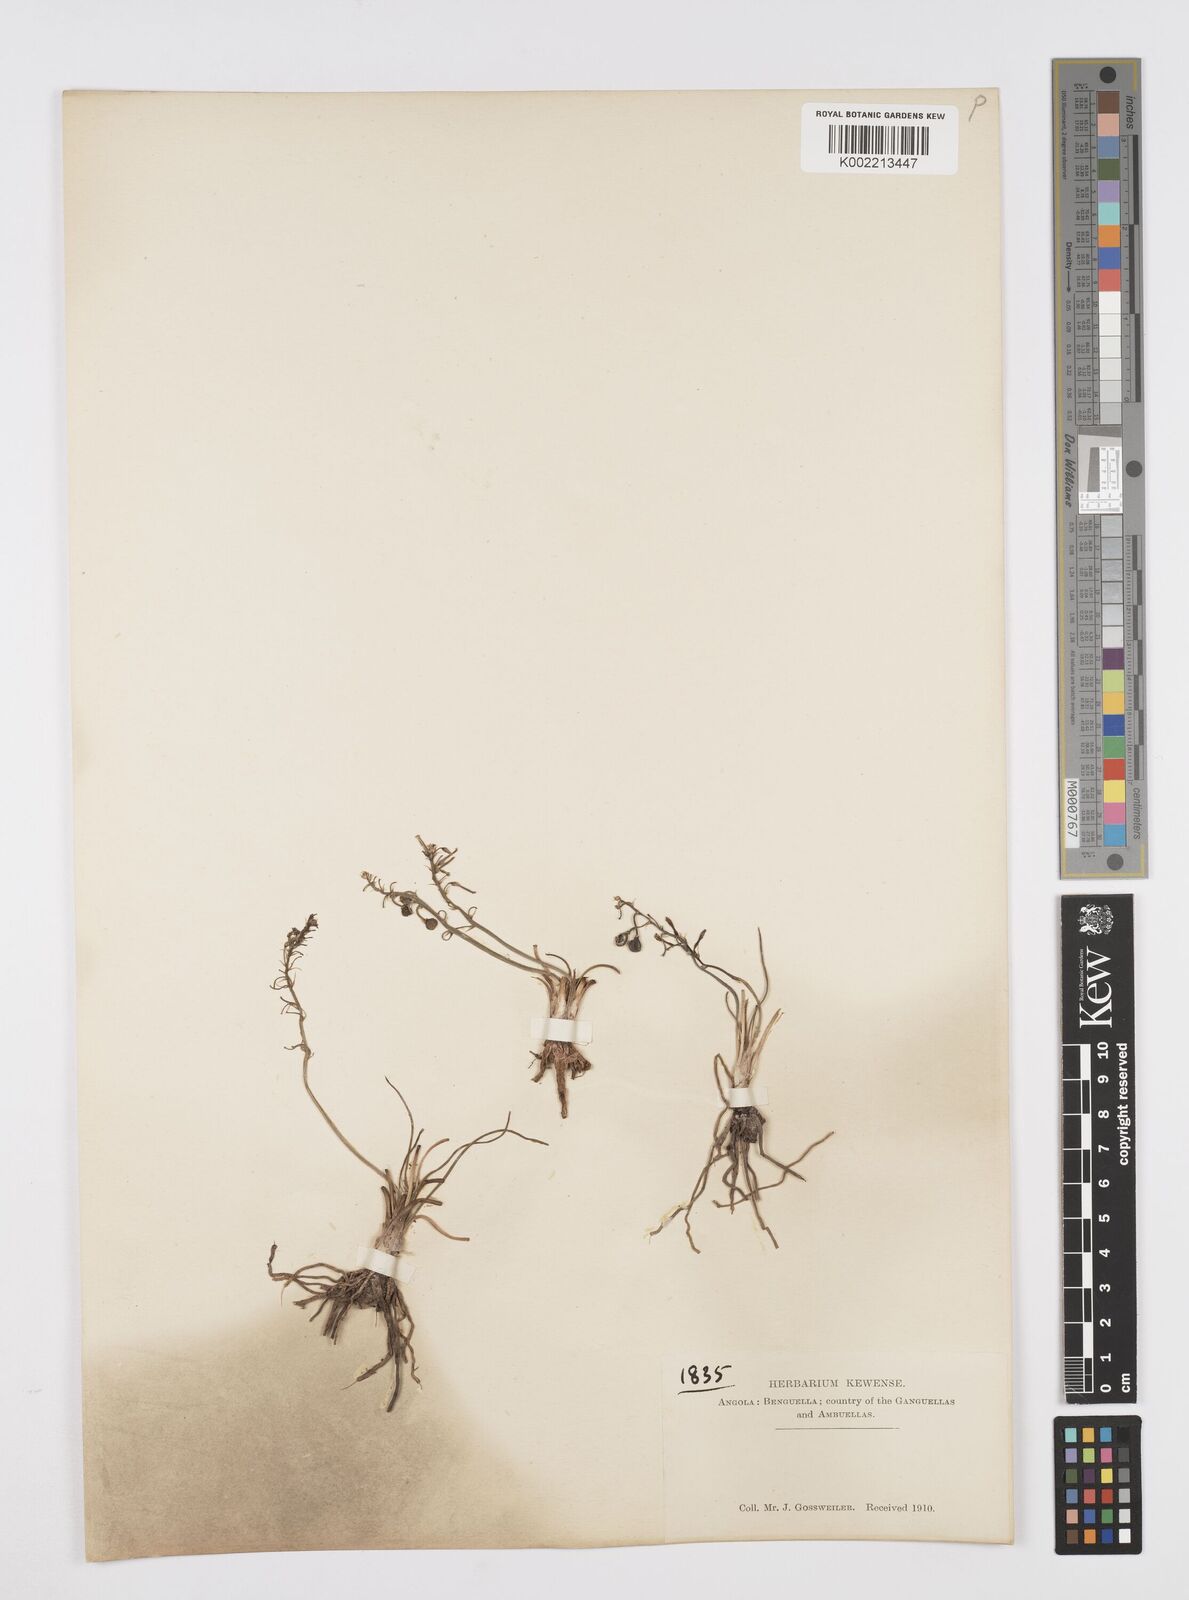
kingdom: Plantae
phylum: Tracheophyta
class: Liliopsida
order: Asparagales
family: Asphodelaceae
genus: Trachyandra
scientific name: Trachyandra saltii
